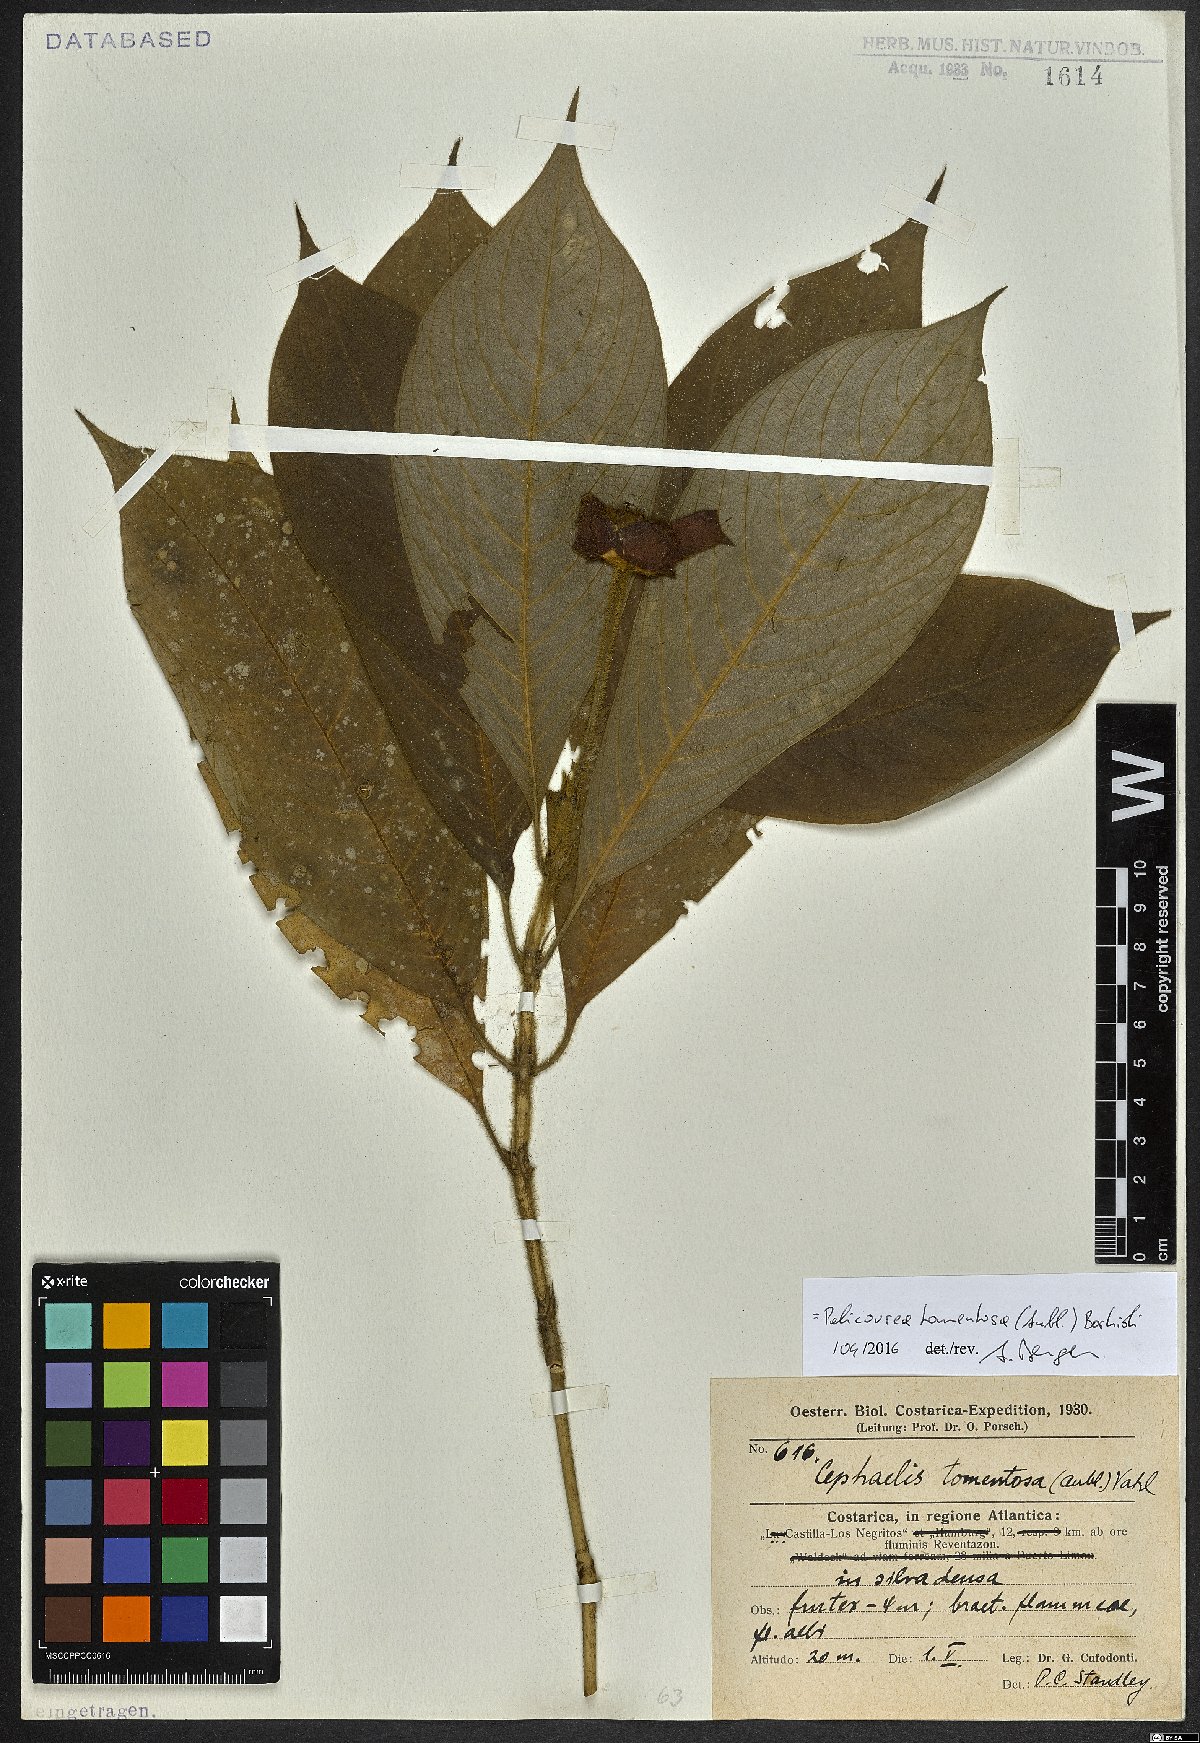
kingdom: Plantae
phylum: Tracheophyta
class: Magnoliopsida
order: Gentianales
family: Rubiaceae
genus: Palicourea
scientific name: Palicourea tomentosa
